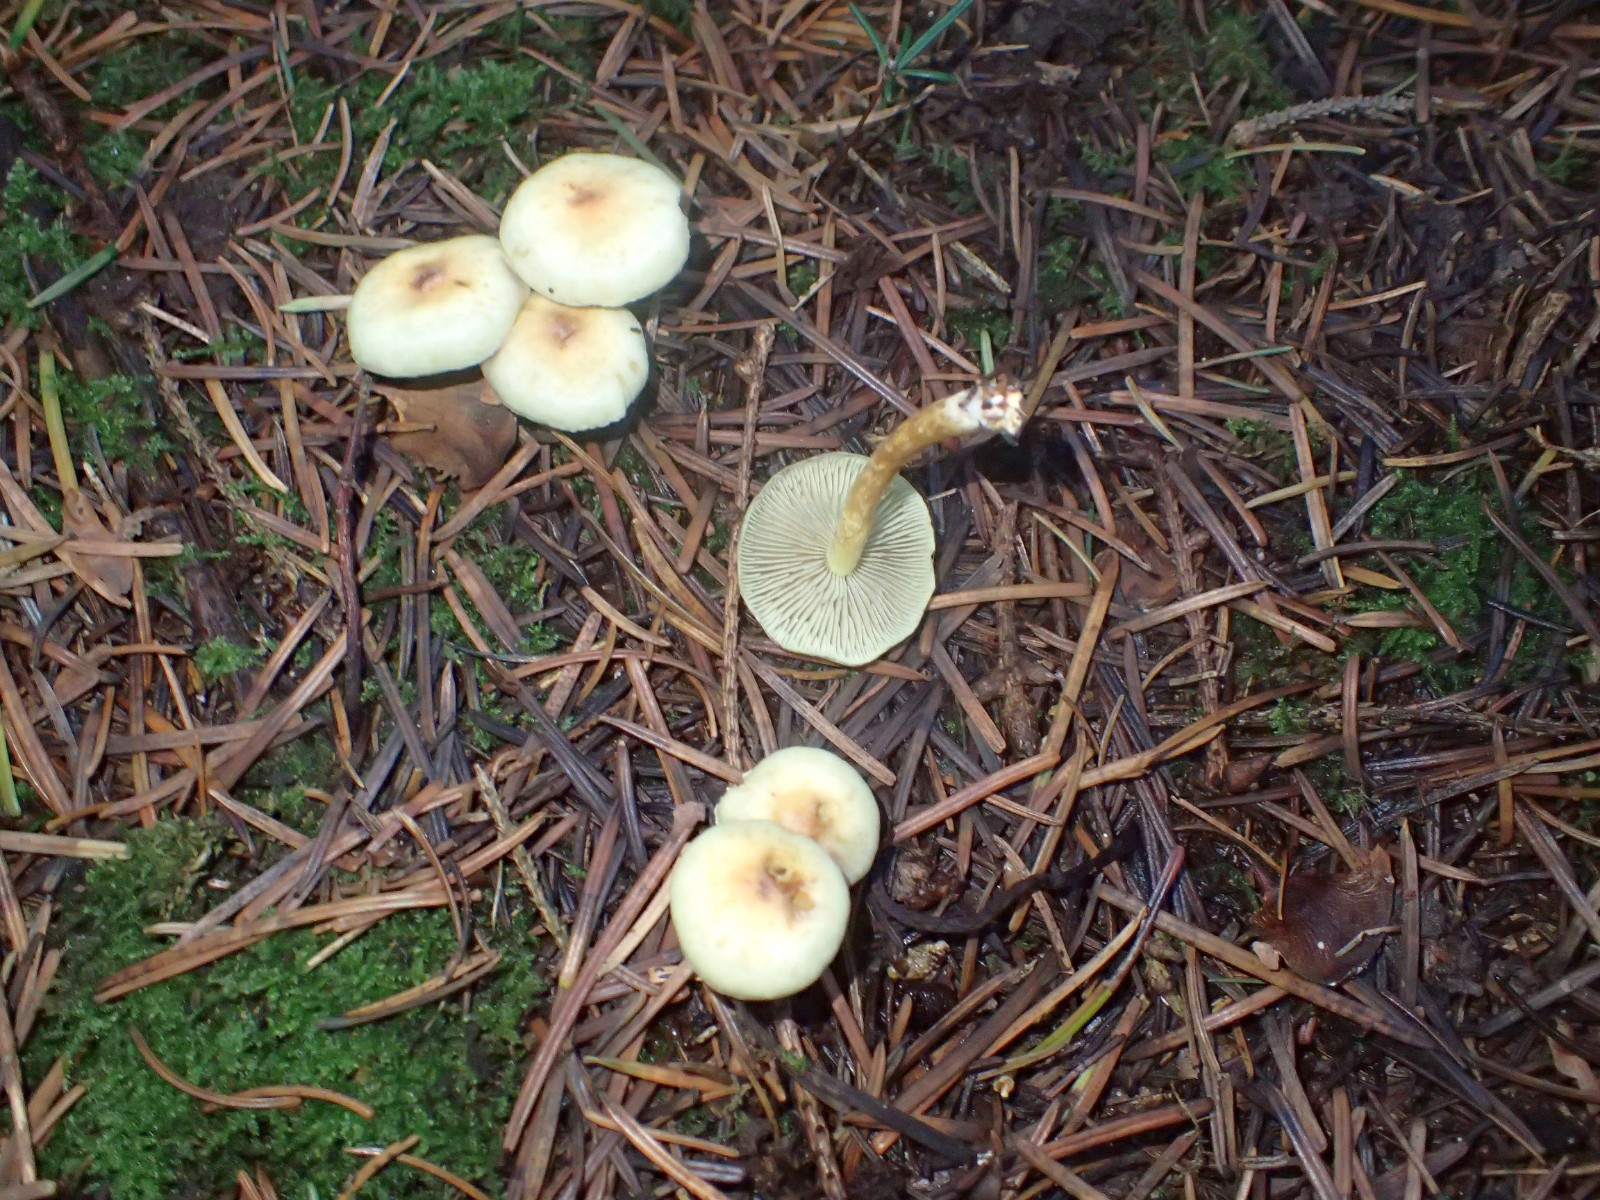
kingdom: Fungi
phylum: Basidiomycota
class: Agaricomycetes
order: Agaricales
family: Strophariaceae
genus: Hypholoma
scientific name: Hypholoma
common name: svovlhat
